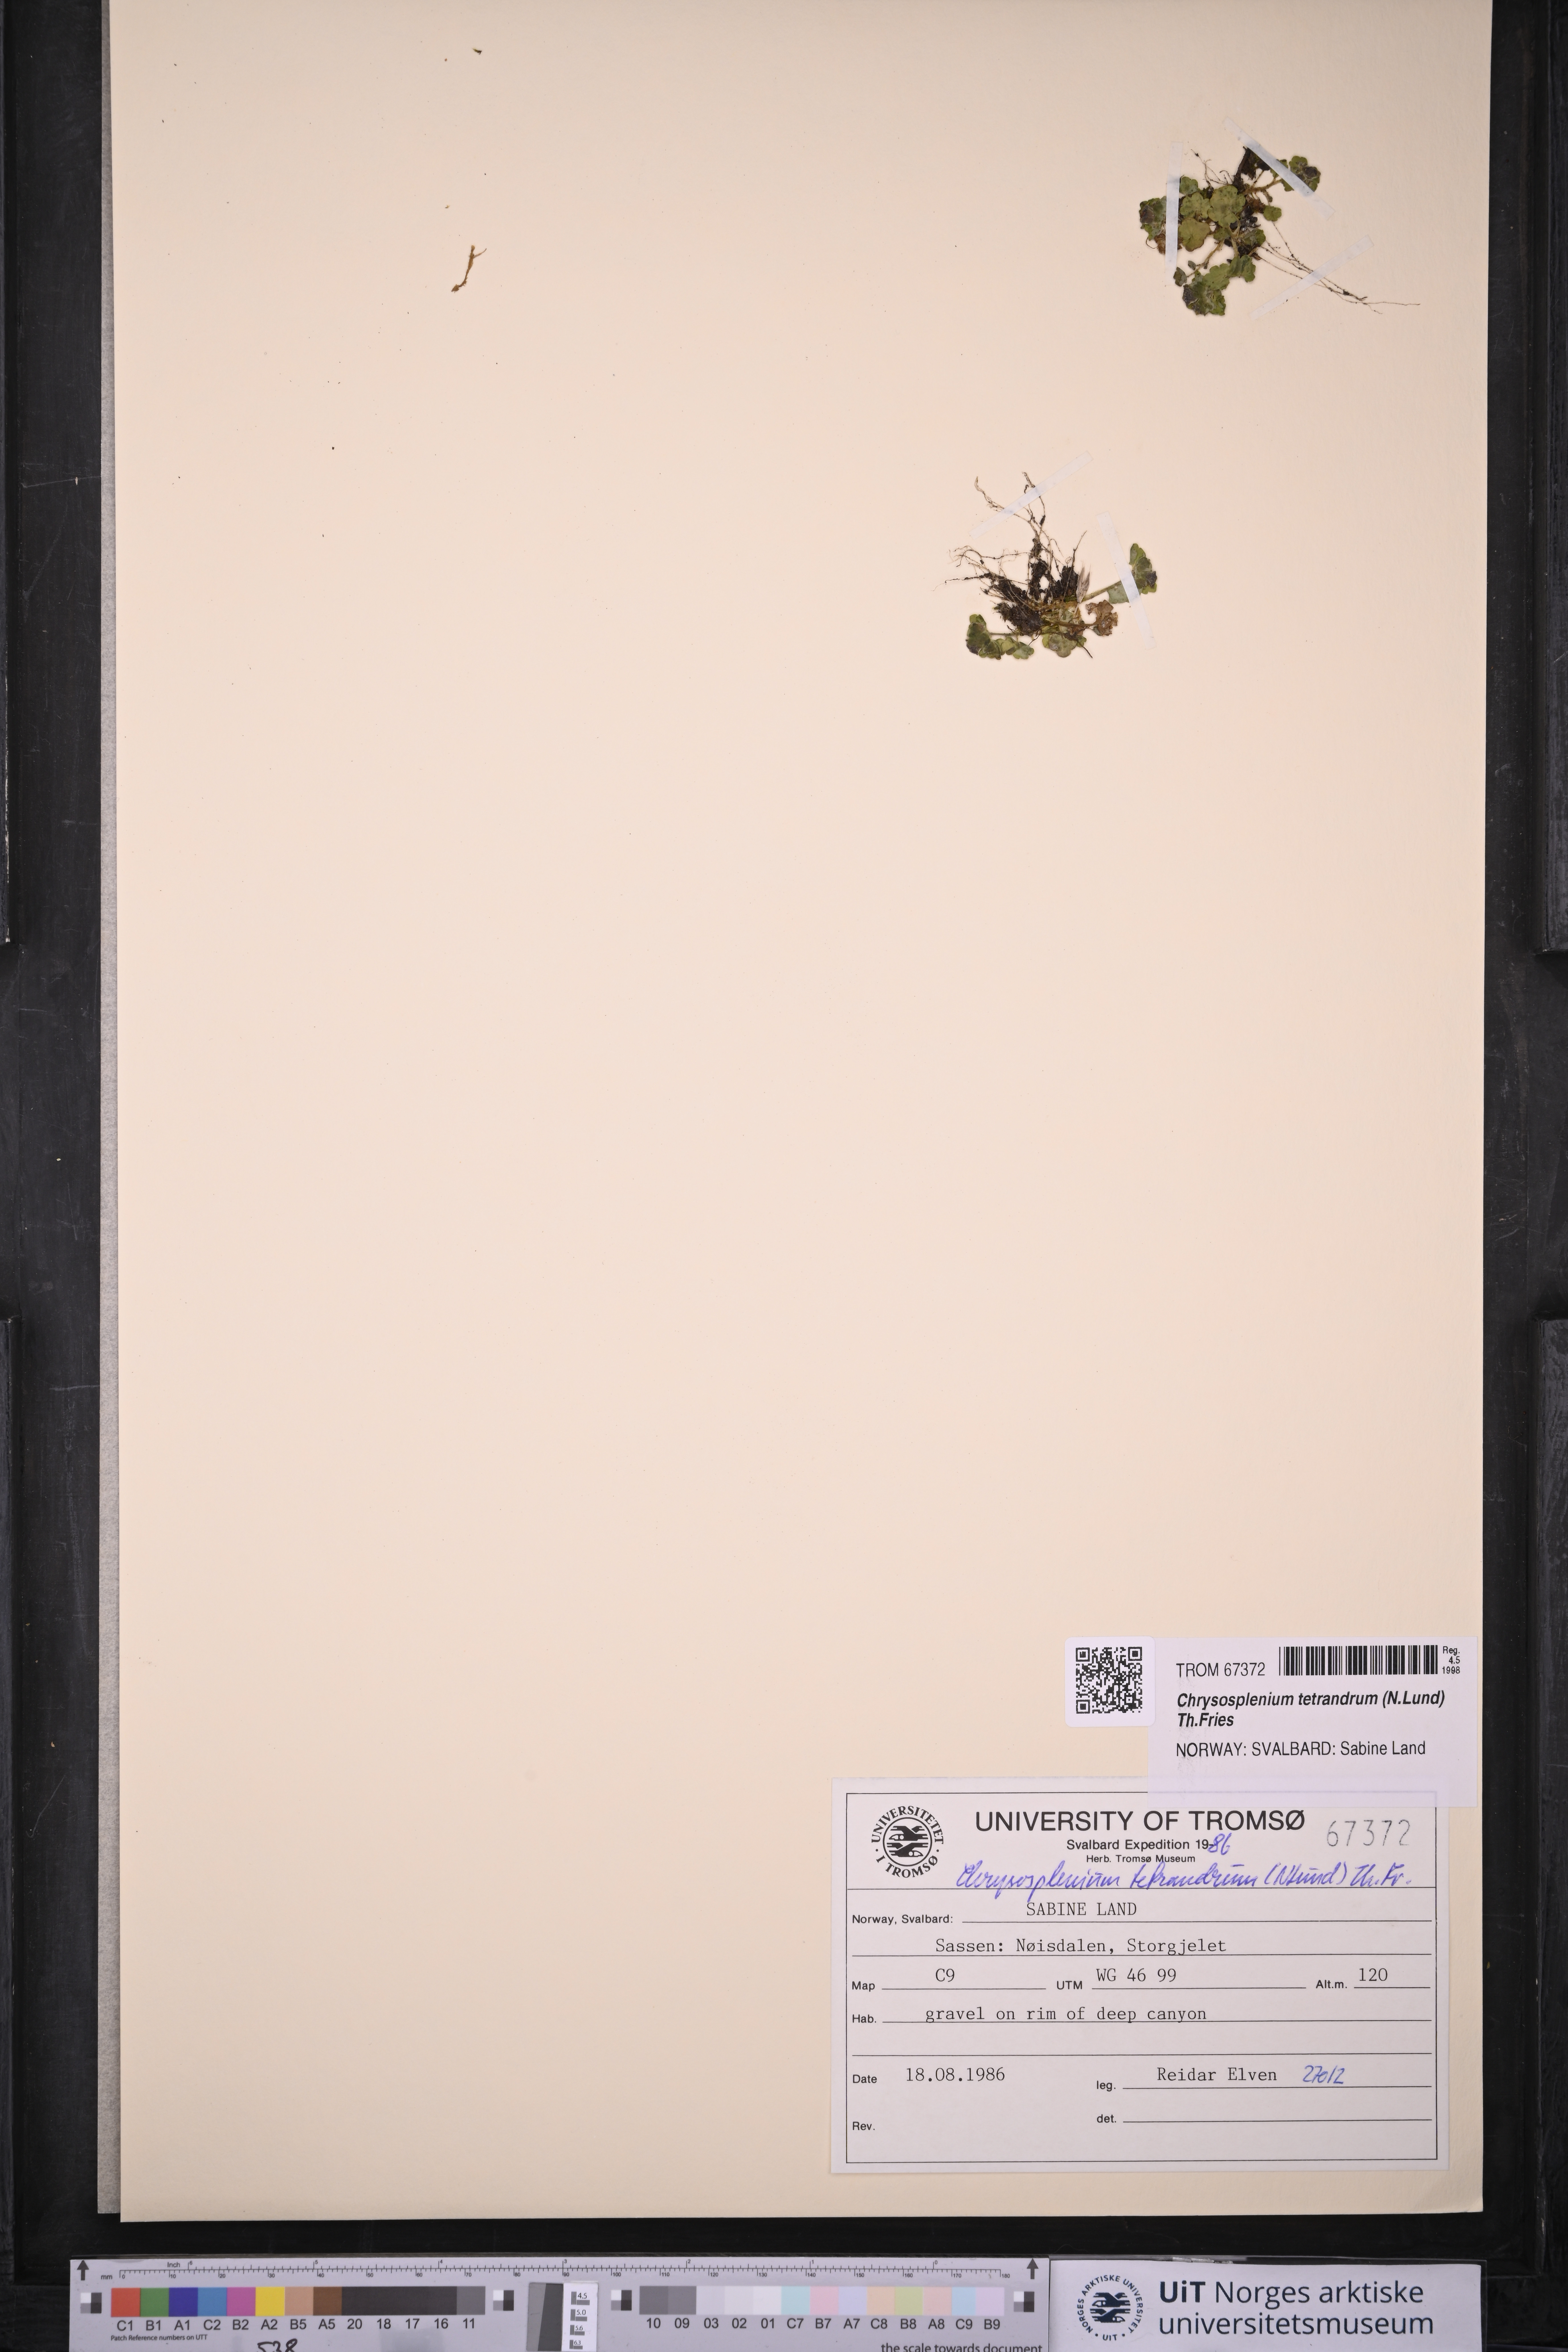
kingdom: Plantae
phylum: Tracheophyta
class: Magnoliopsida
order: Saxifragales
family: Saxifragaceae
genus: Chrysosplenium
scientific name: Chrysosplenium tetrandrum
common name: Green saxifrage
